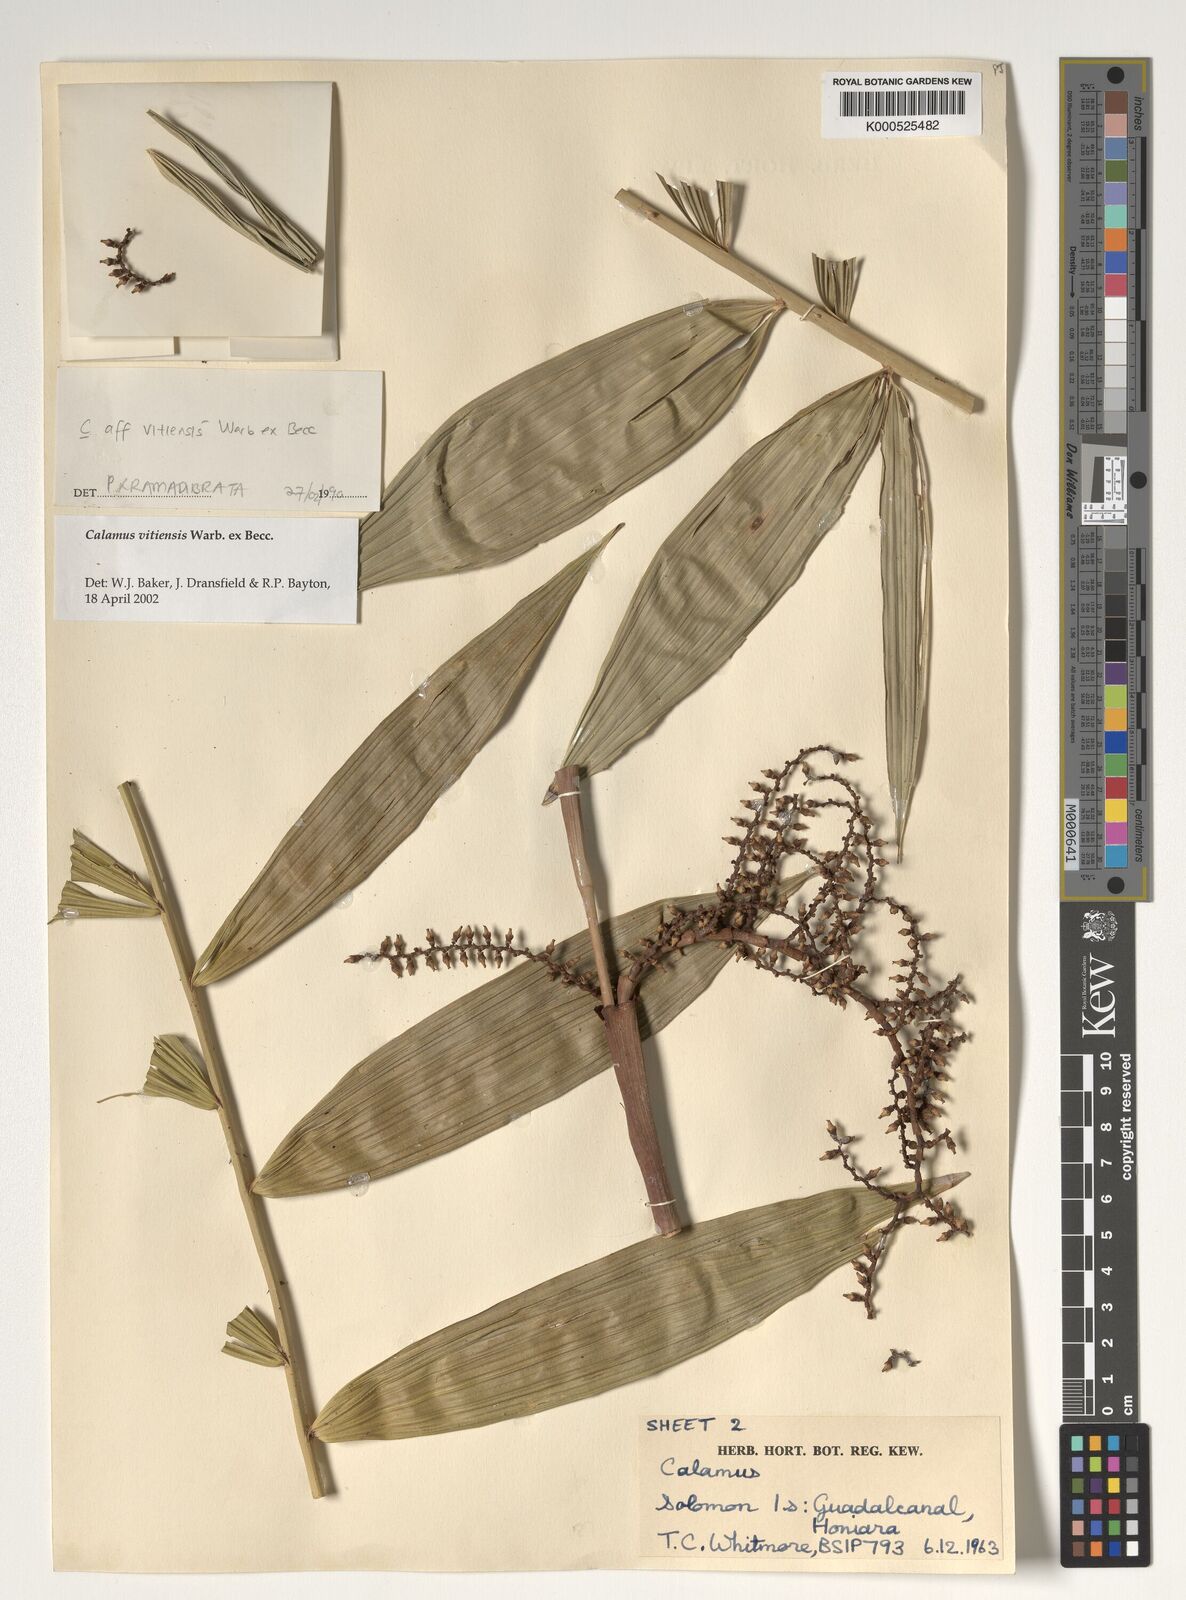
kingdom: Plantae
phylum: Tracheophyta
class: Liliopsida
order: Arecales
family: Arecaceae
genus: Calamus
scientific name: Calamus vitiensis
